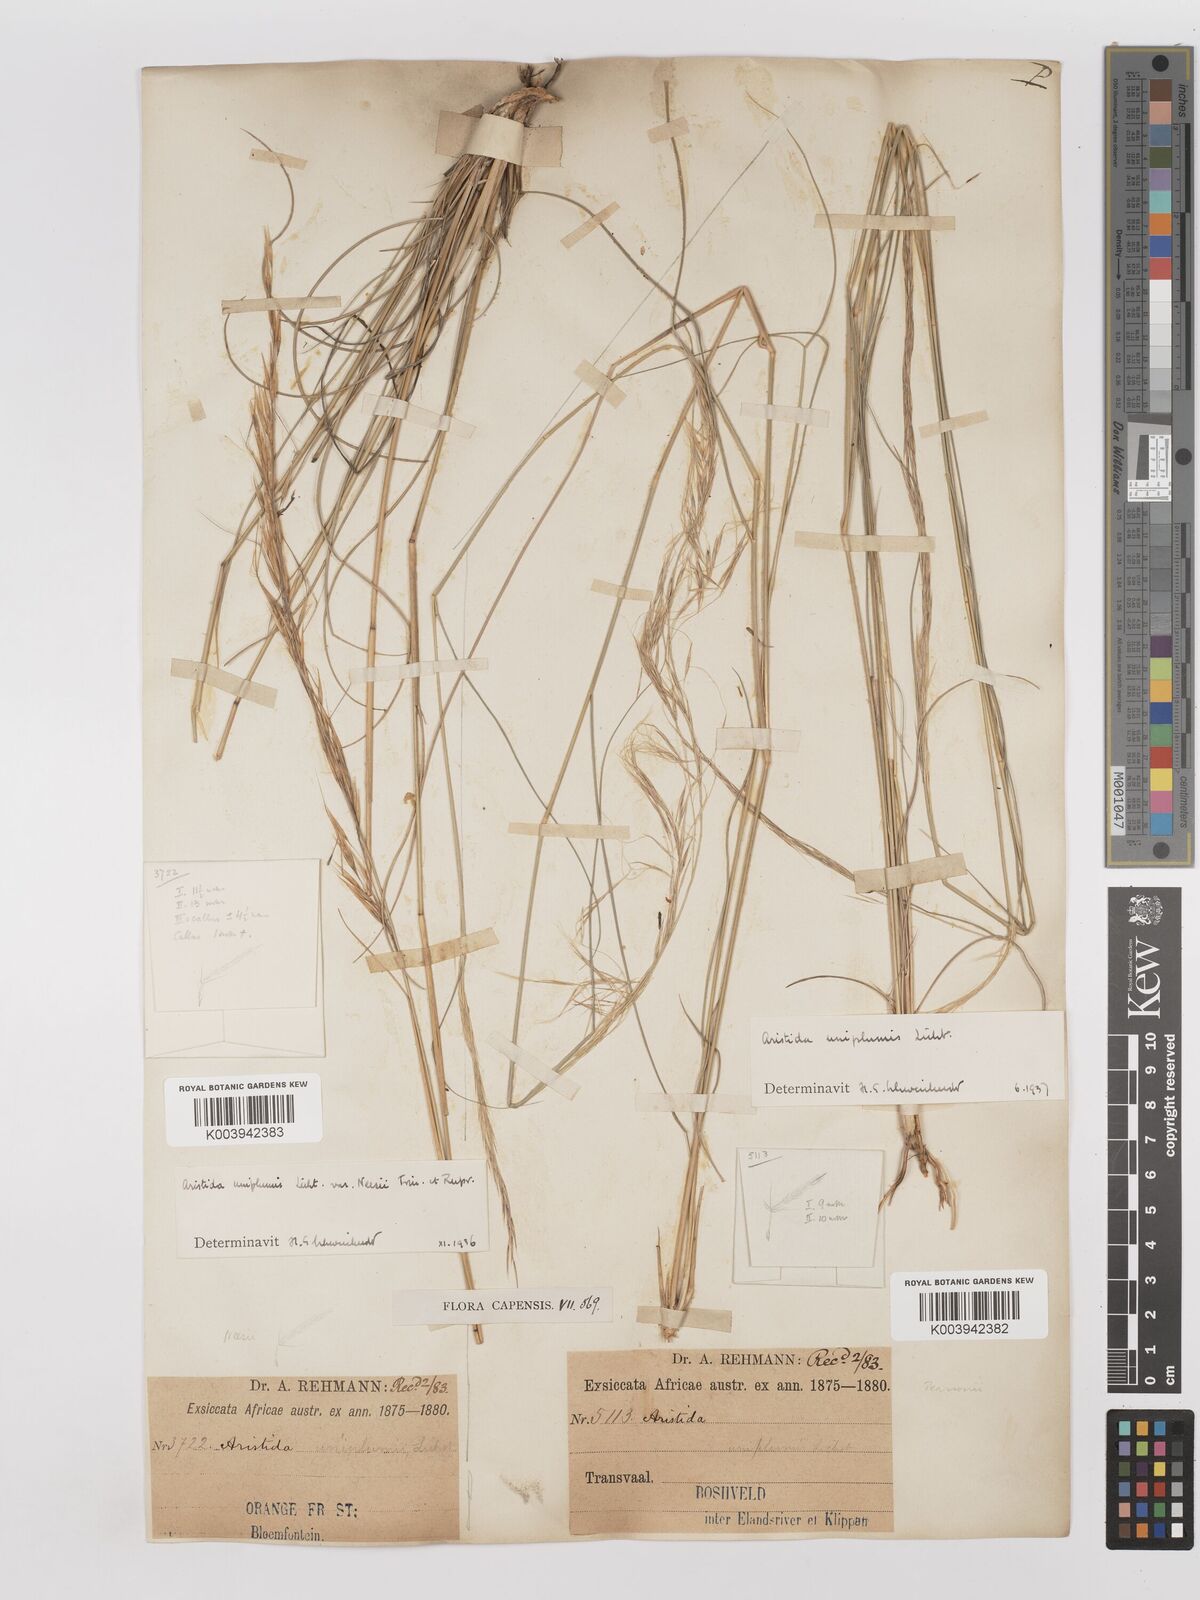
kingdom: Plantae
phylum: Tracheophyta
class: Liliopsida
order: Poales
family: Poaceae
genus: Stipagrostis
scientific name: Stipagrostis uniplumis
